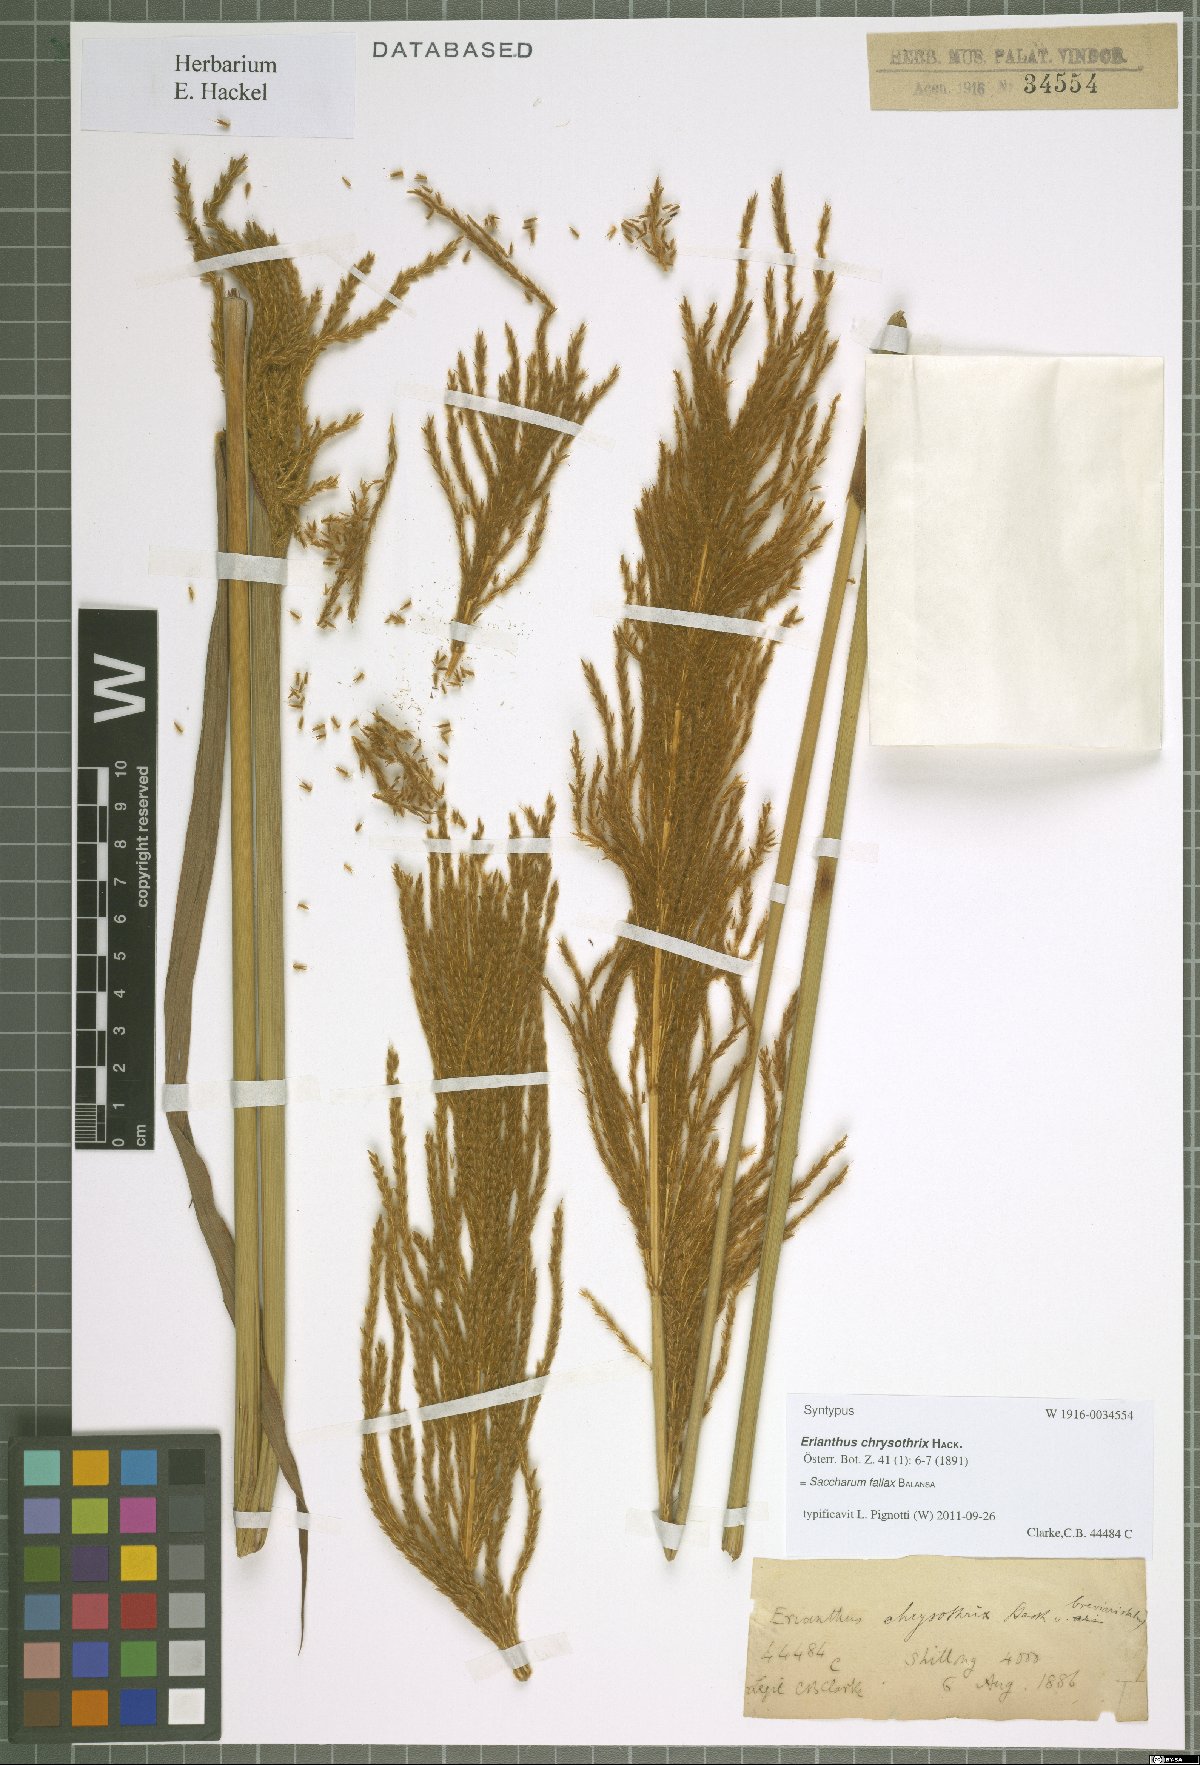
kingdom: Plantae
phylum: Tracheophyta
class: Liliopsida
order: Poales
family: Poaceae
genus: Narenga
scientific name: Narenga fallax
